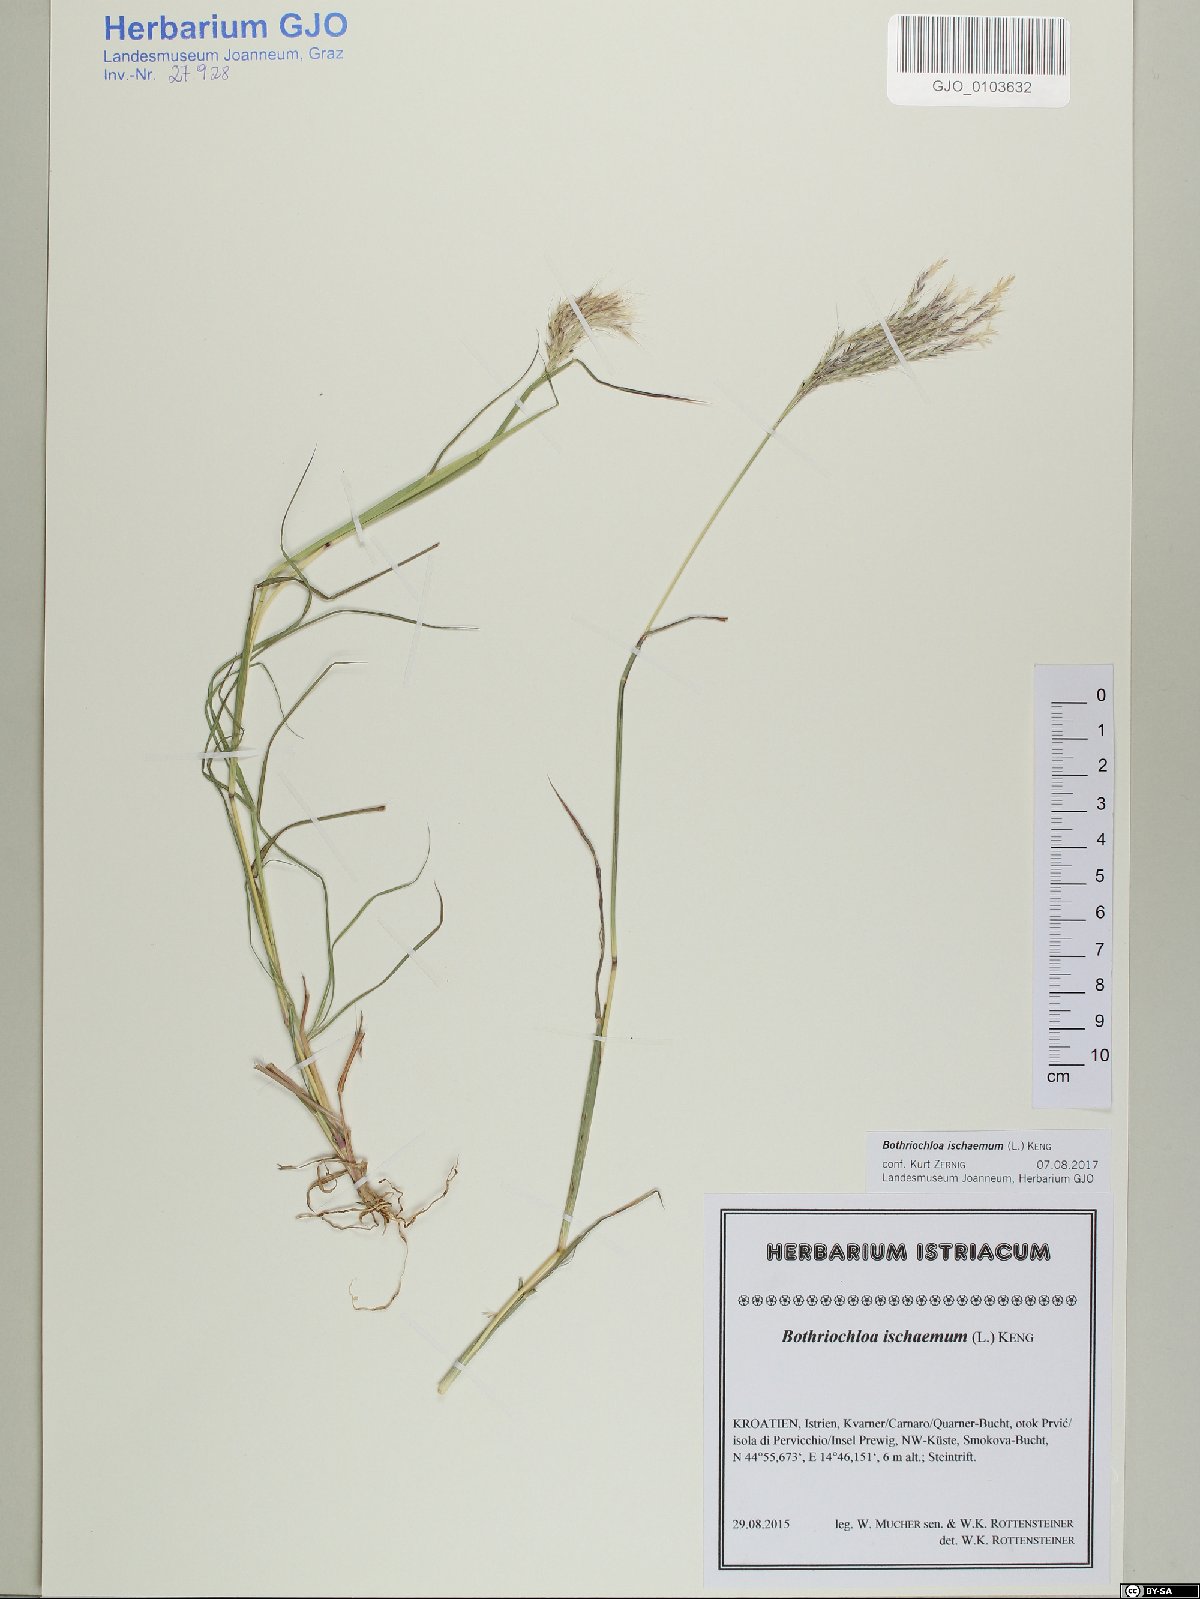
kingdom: Plantae
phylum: Tracheophyta
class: Liliopsida
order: Poales
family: Poaceae
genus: Bothriochloa
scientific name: Bothriochloa ischaemum
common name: Yellow bluestem
